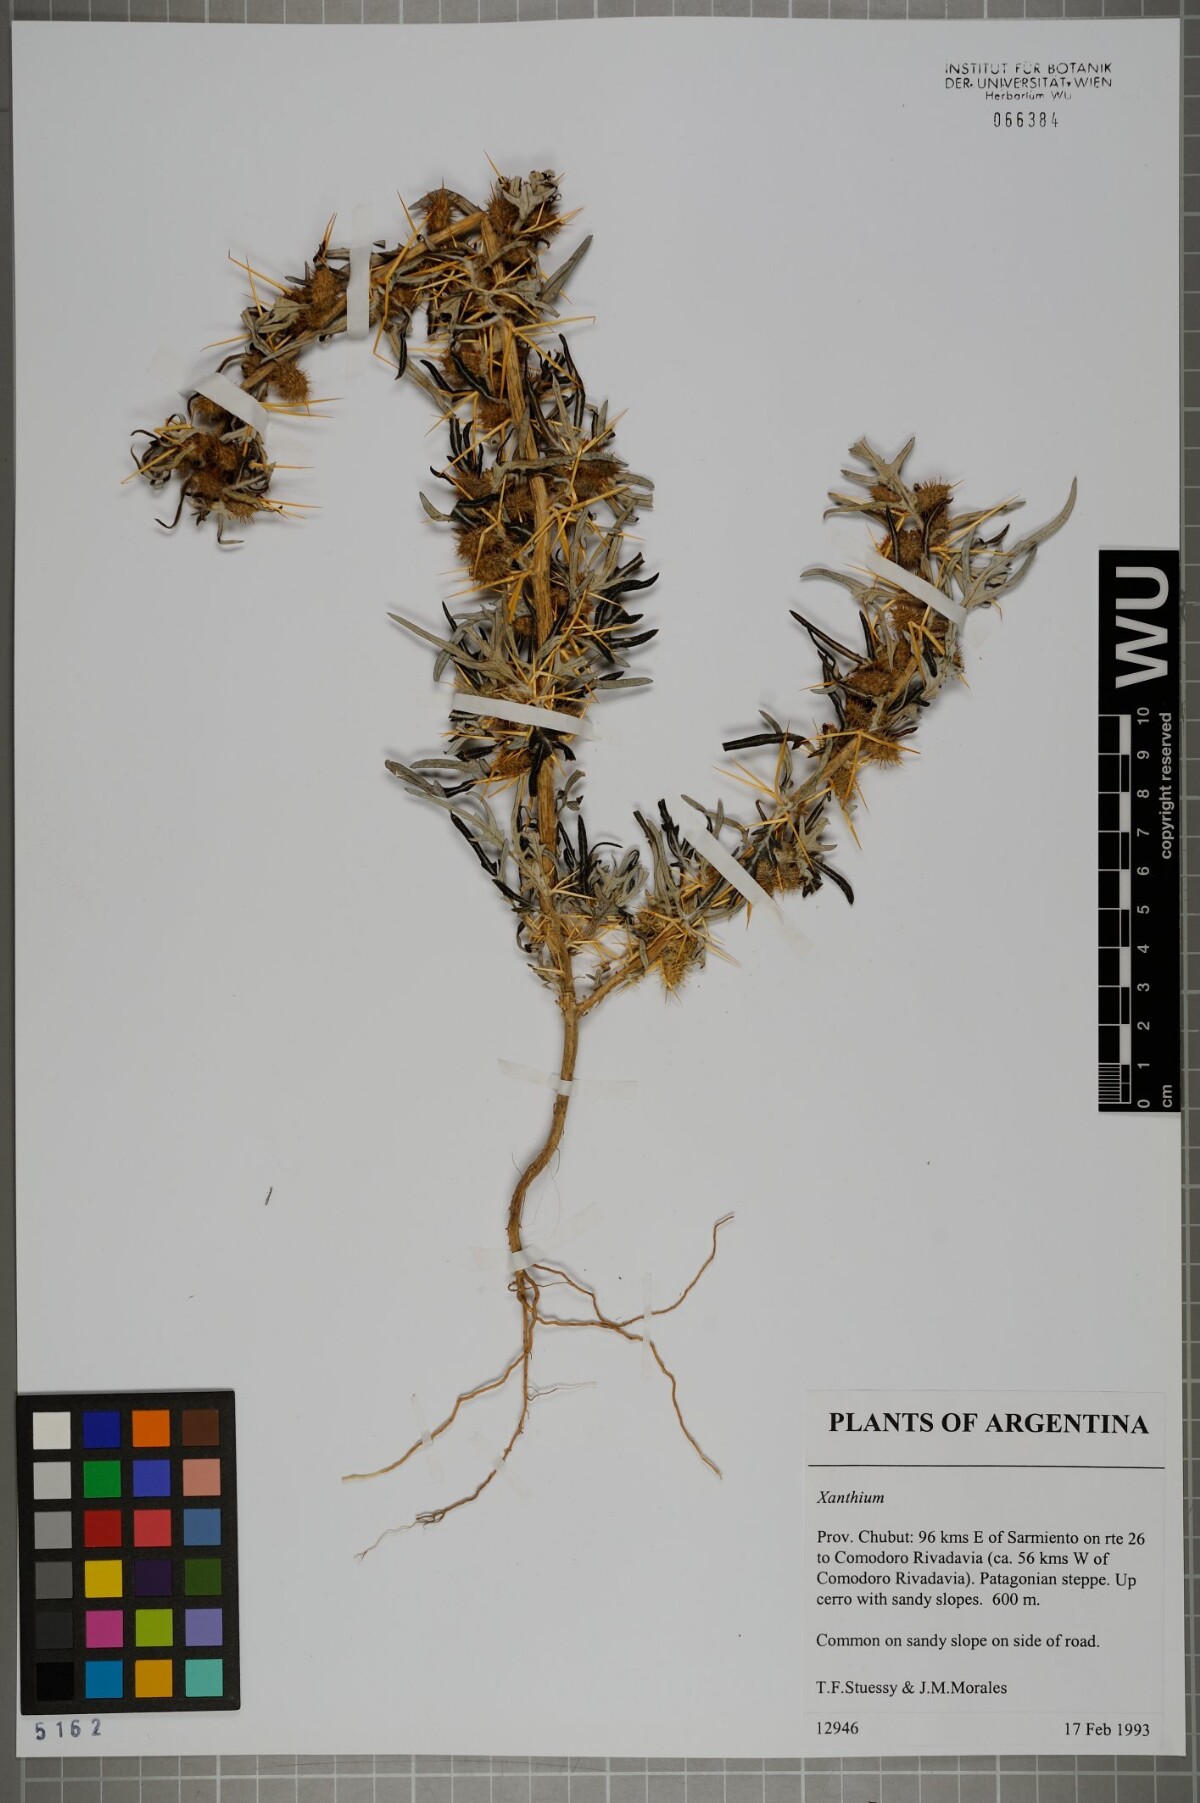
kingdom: Plantae
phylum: Tracheophyta
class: Magnoliopsida
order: Asterales
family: Asteraceae
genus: Xanthium
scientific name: Xanthium spinosum
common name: Spiny cocklebur
